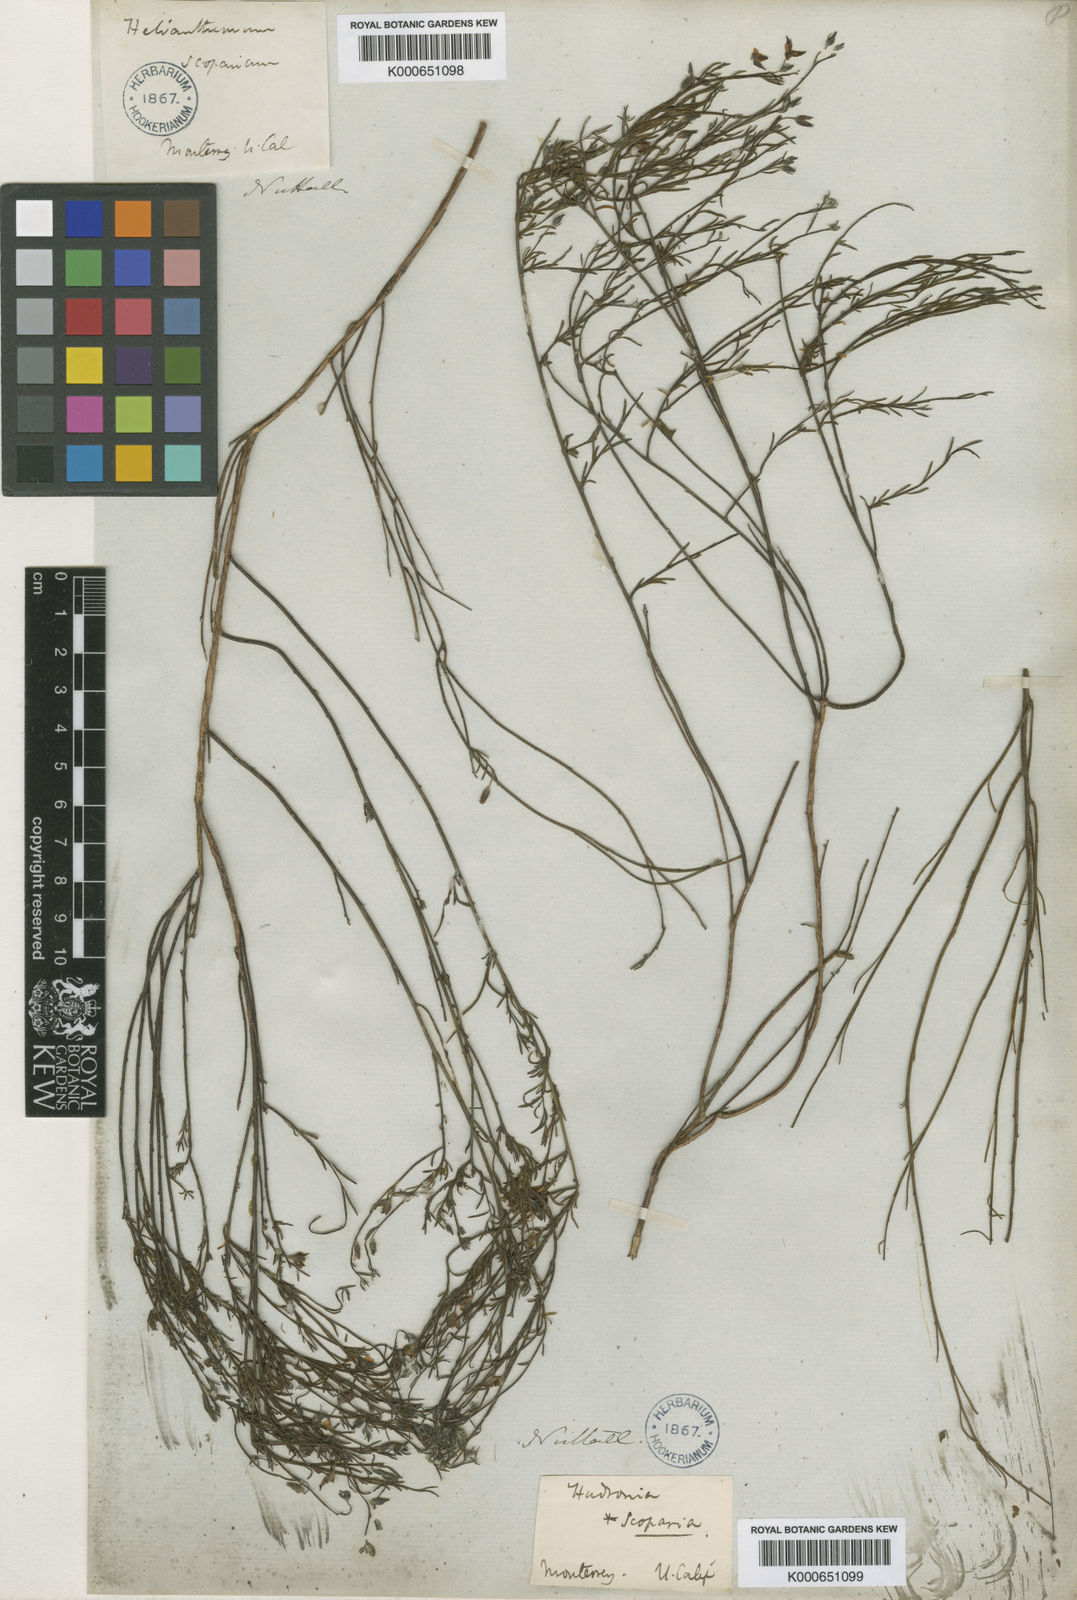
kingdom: Plantae
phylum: Tracheophyta
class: Magnoliopsida
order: Malvales
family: Cistaceae
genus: Crocanthemum
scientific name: Crocanthemum scoparium
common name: Broom-rose
